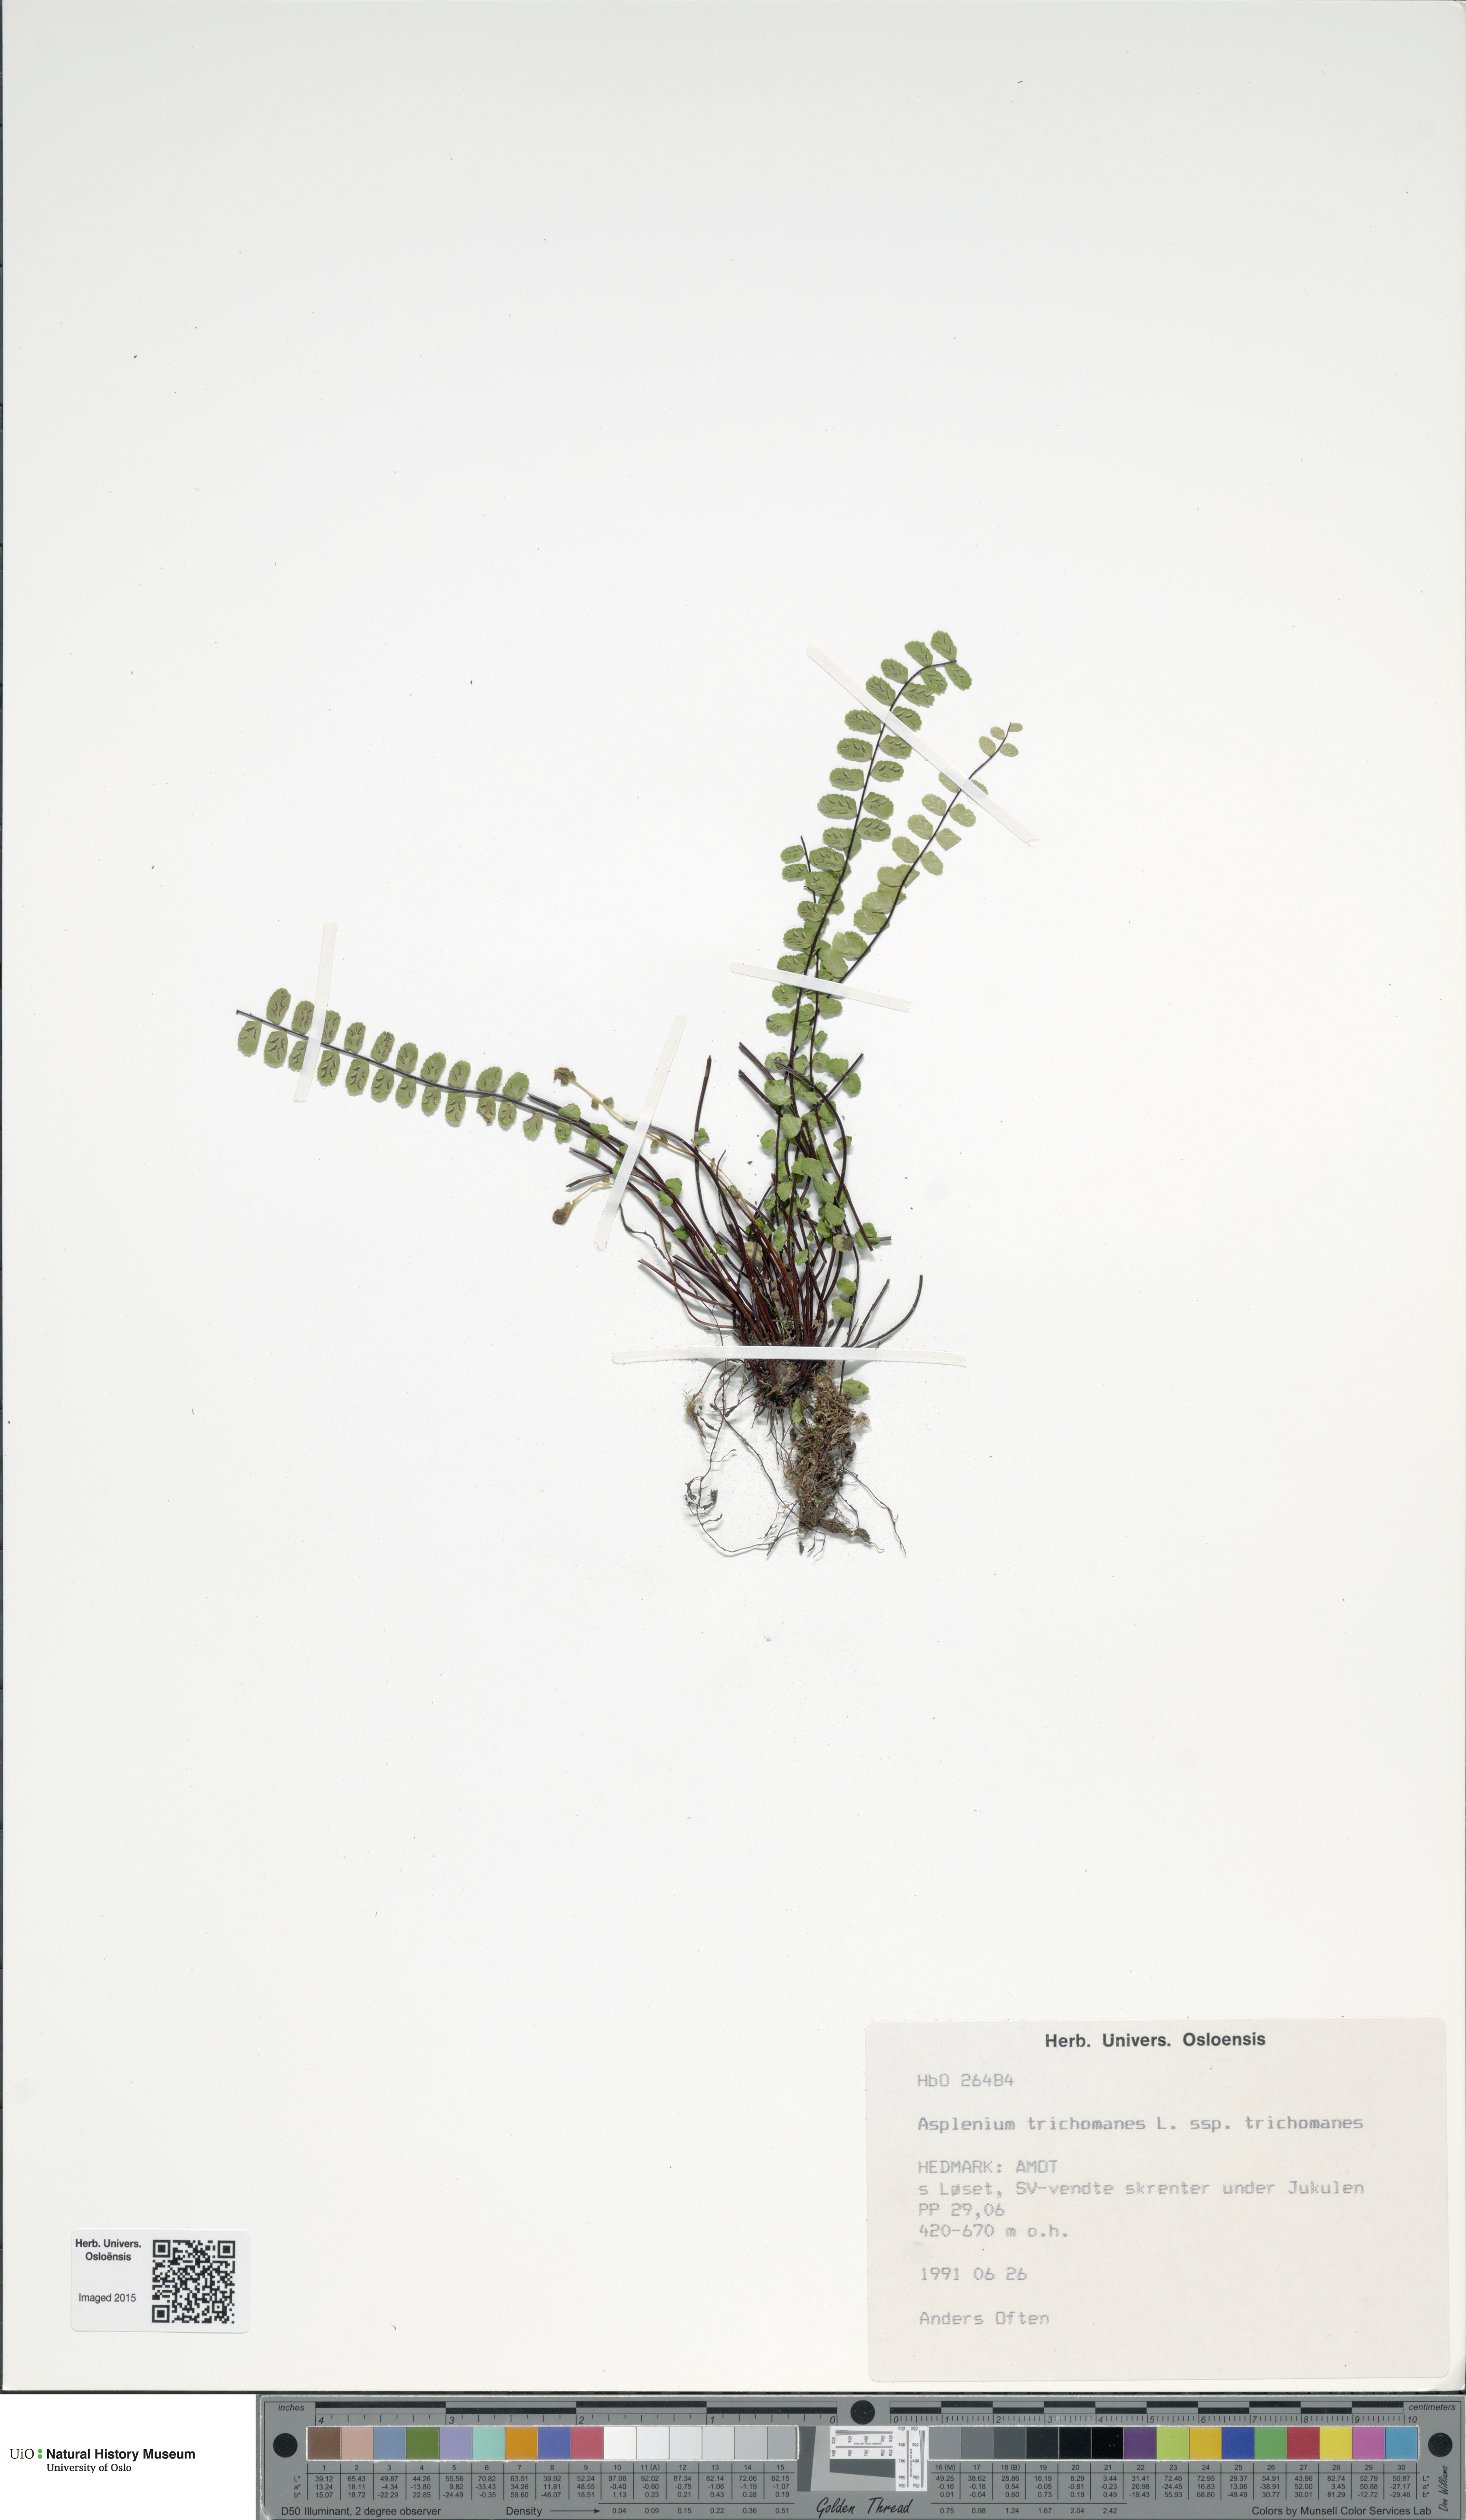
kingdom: Plantae
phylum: Tracheophyta
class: Polypodiopsida
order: Polypodiales
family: Aspleniaceae
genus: Asplenium
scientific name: Asplenium trichomanes
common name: Maidenhair spleenwort
